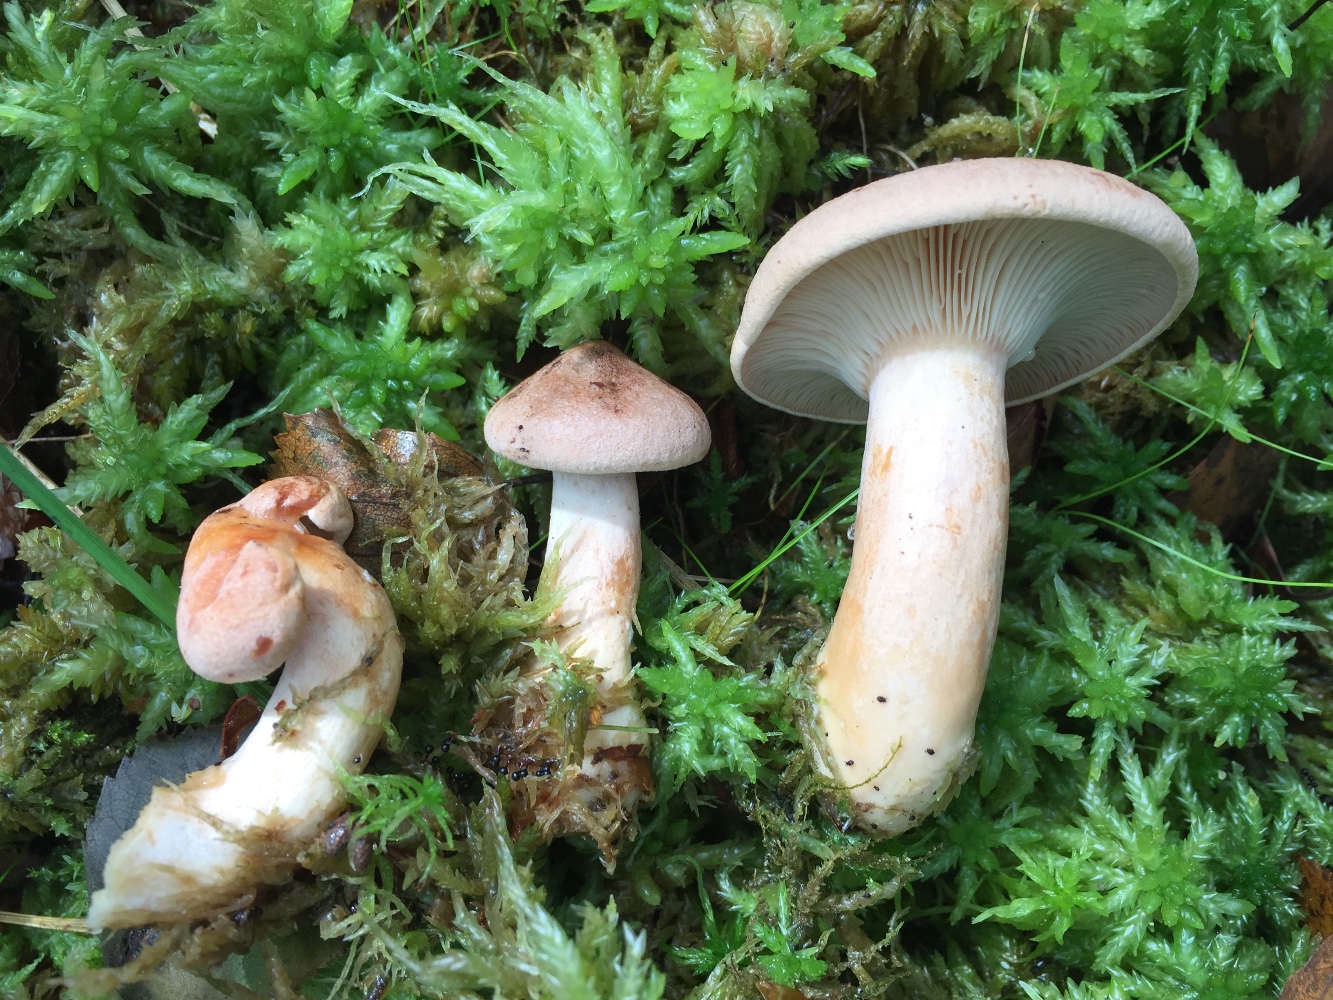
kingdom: Fungi
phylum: Basidiomycota
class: Agaricomycetes
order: Russulales
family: Russulaceae
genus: Lactarius
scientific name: Lactarius helvus
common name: mose-mælkehat
